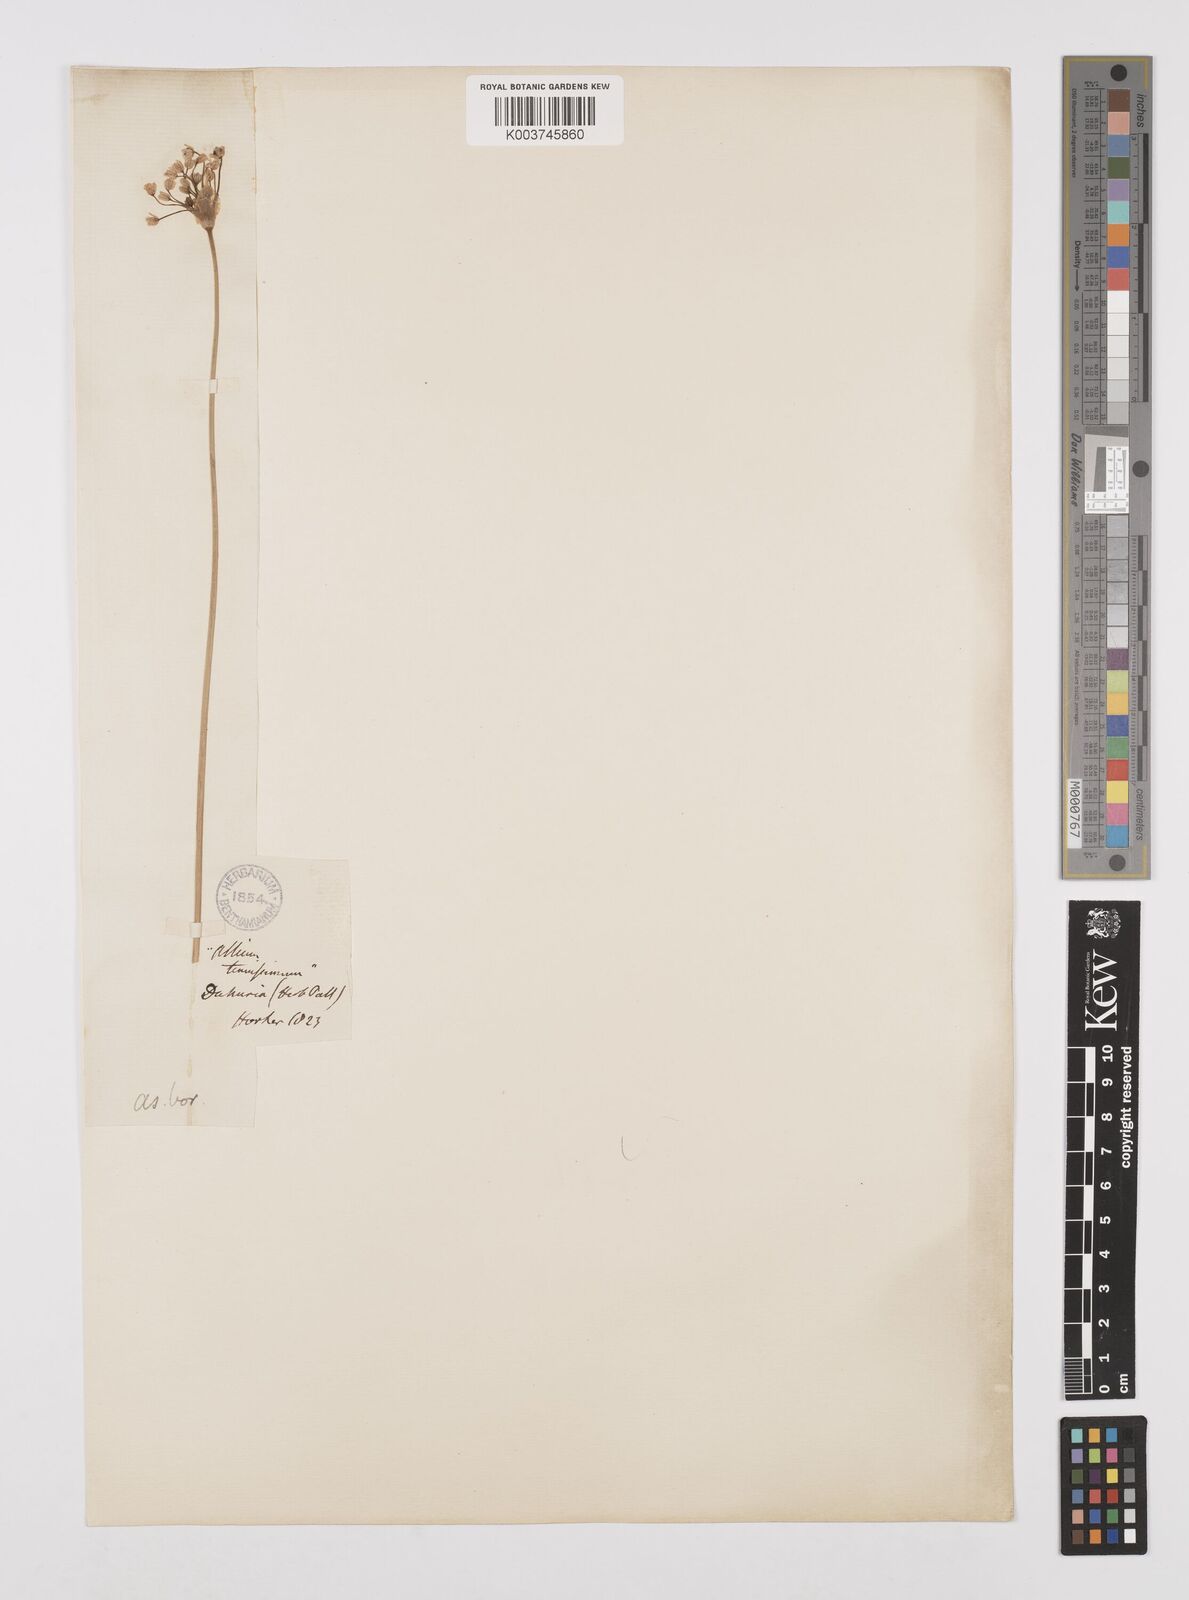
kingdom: Plantae
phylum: Tracheophyta
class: Liliopsida
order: Asparagales
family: Amaryllidaceae
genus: Allium
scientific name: Allium anisopodium
